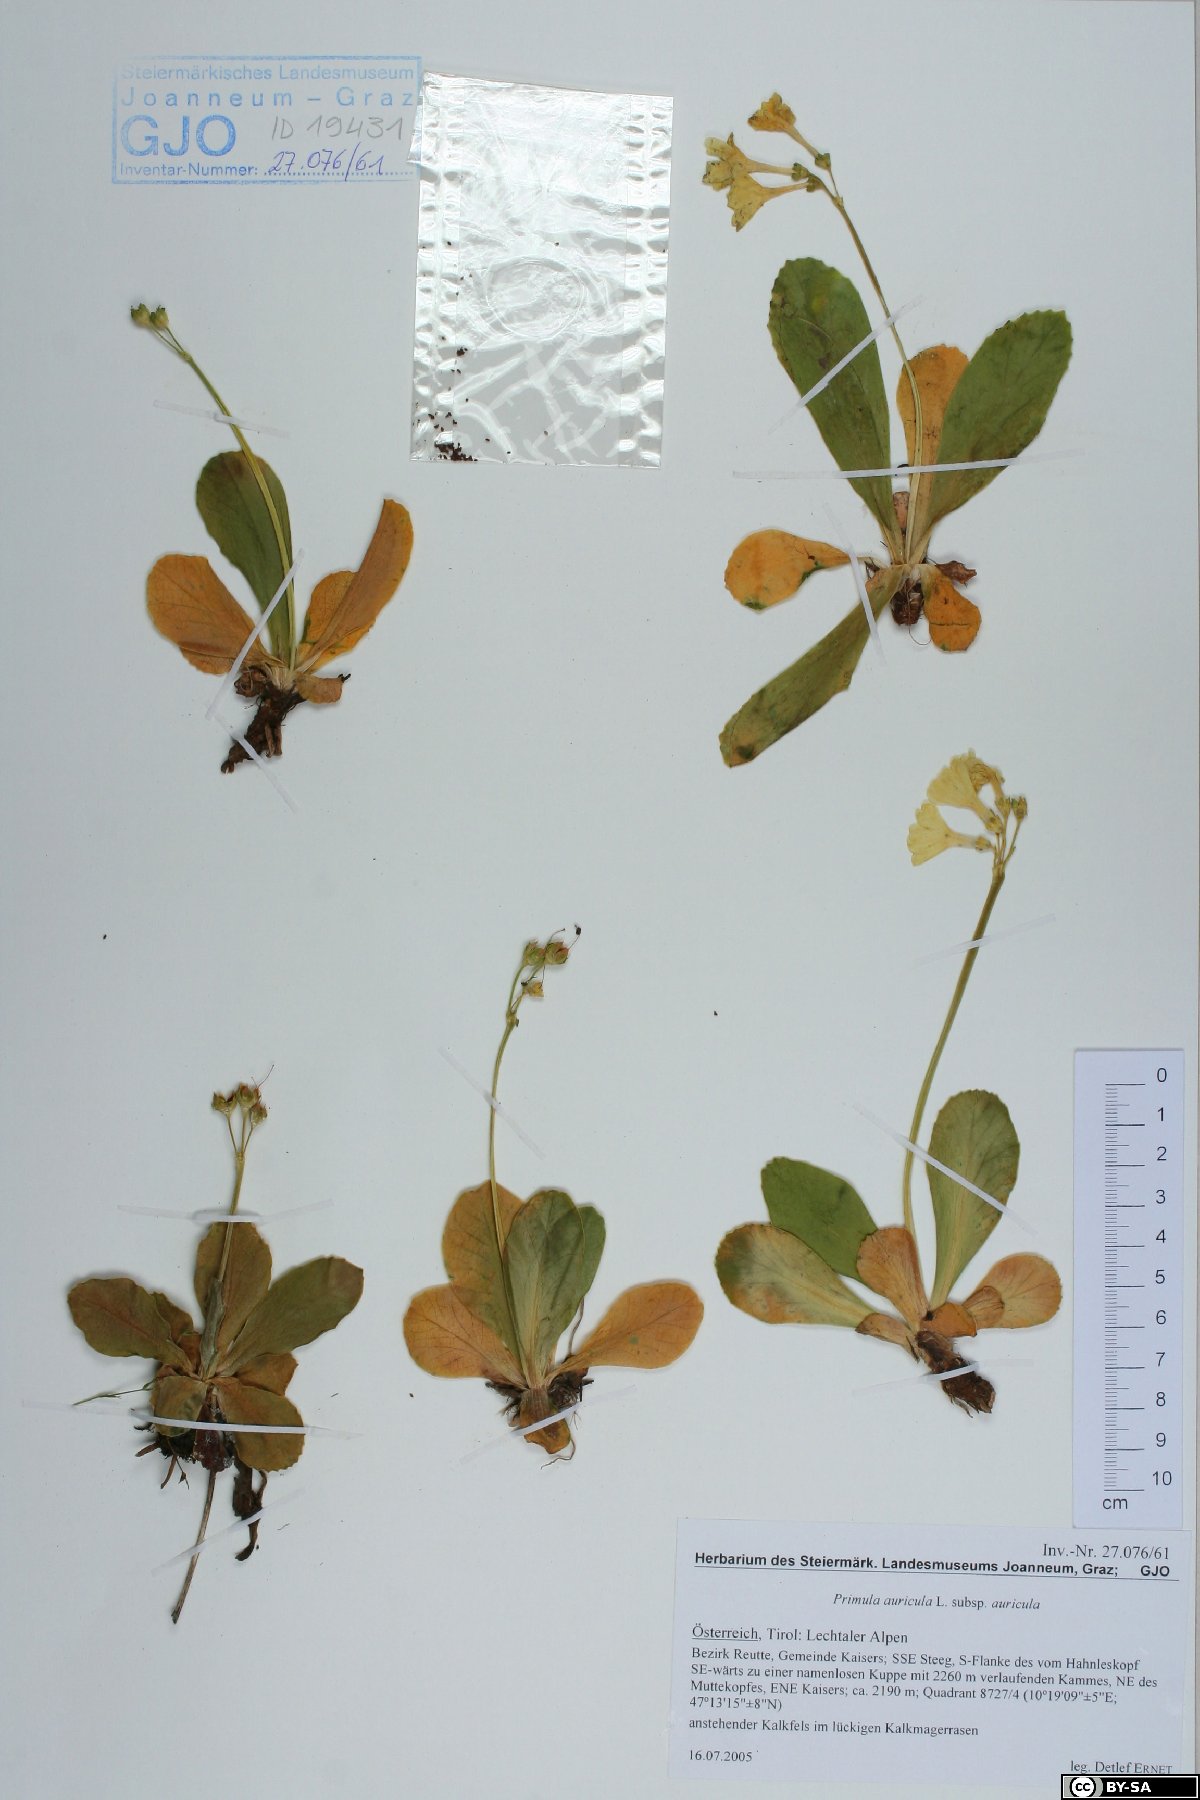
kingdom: Plantae
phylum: Tracheophyta
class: Magnoliopsida
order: Ericales
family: Primulaceae
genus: Primula
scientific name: Primula auricula
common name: Auricula
